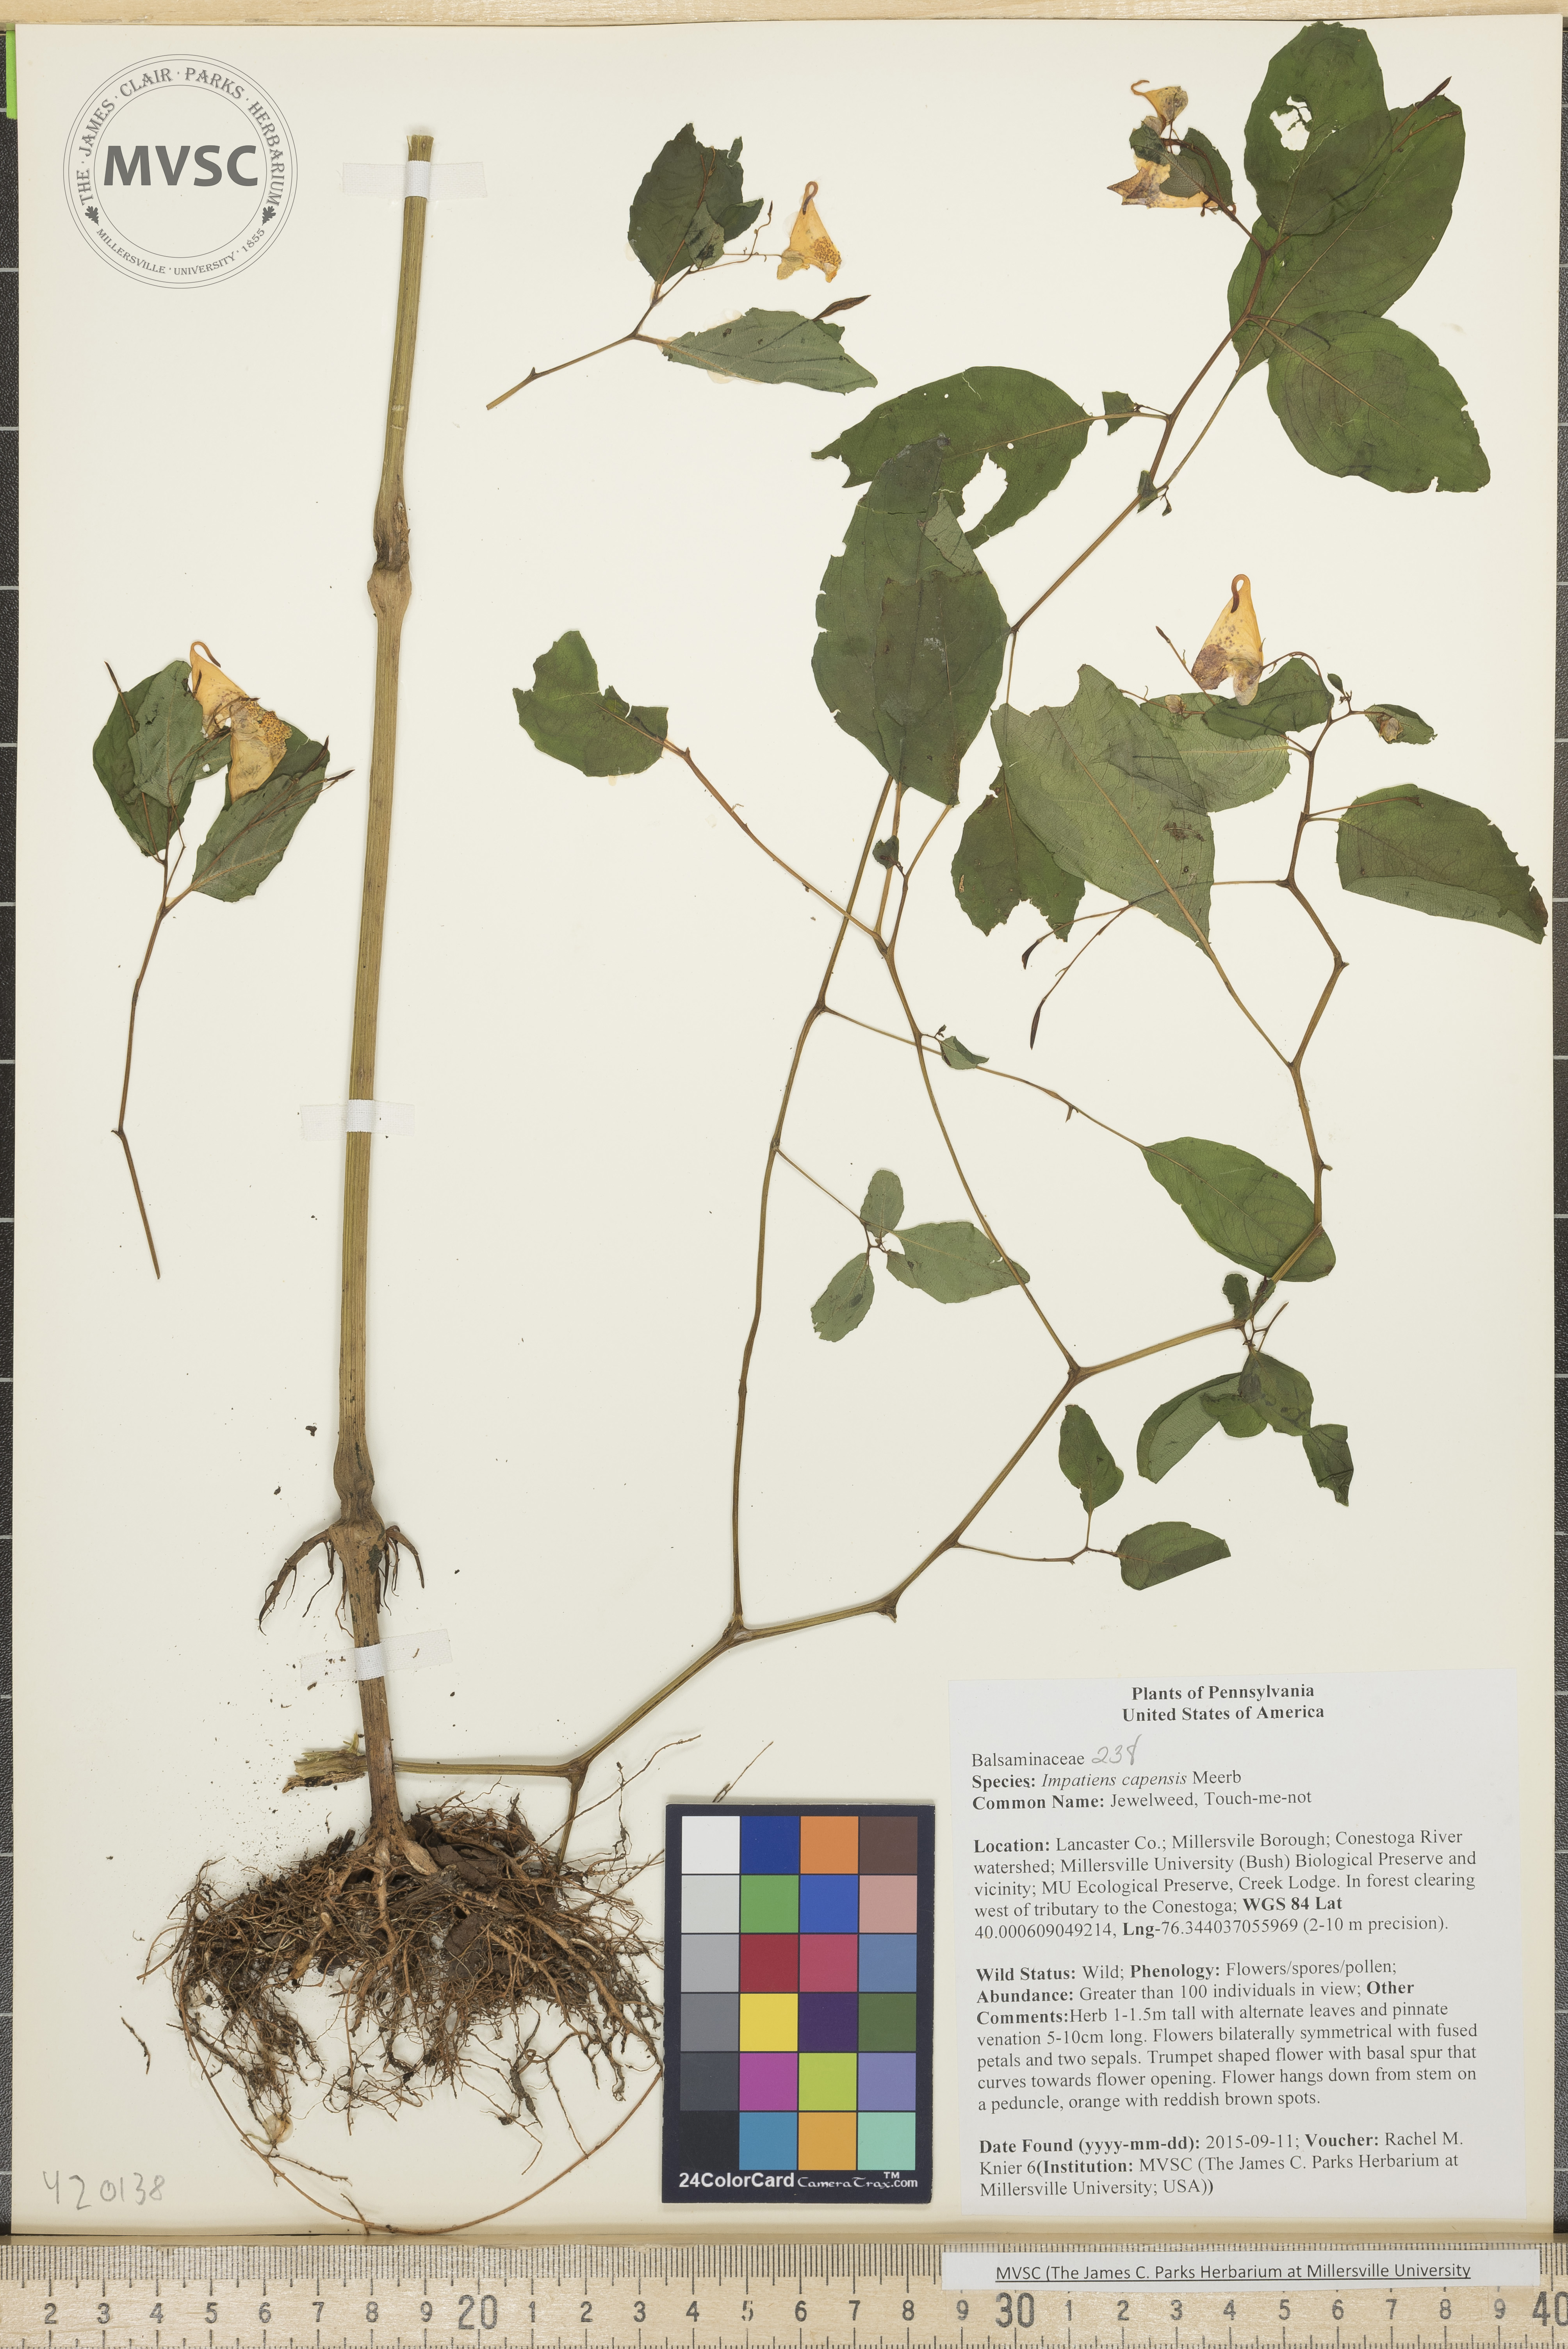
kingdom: Plantae
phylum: Tracheophyta
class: Magnoliopsida
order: Ericales
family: Balsaminaceae
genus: Impatiens
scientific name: Impatiens capensis
